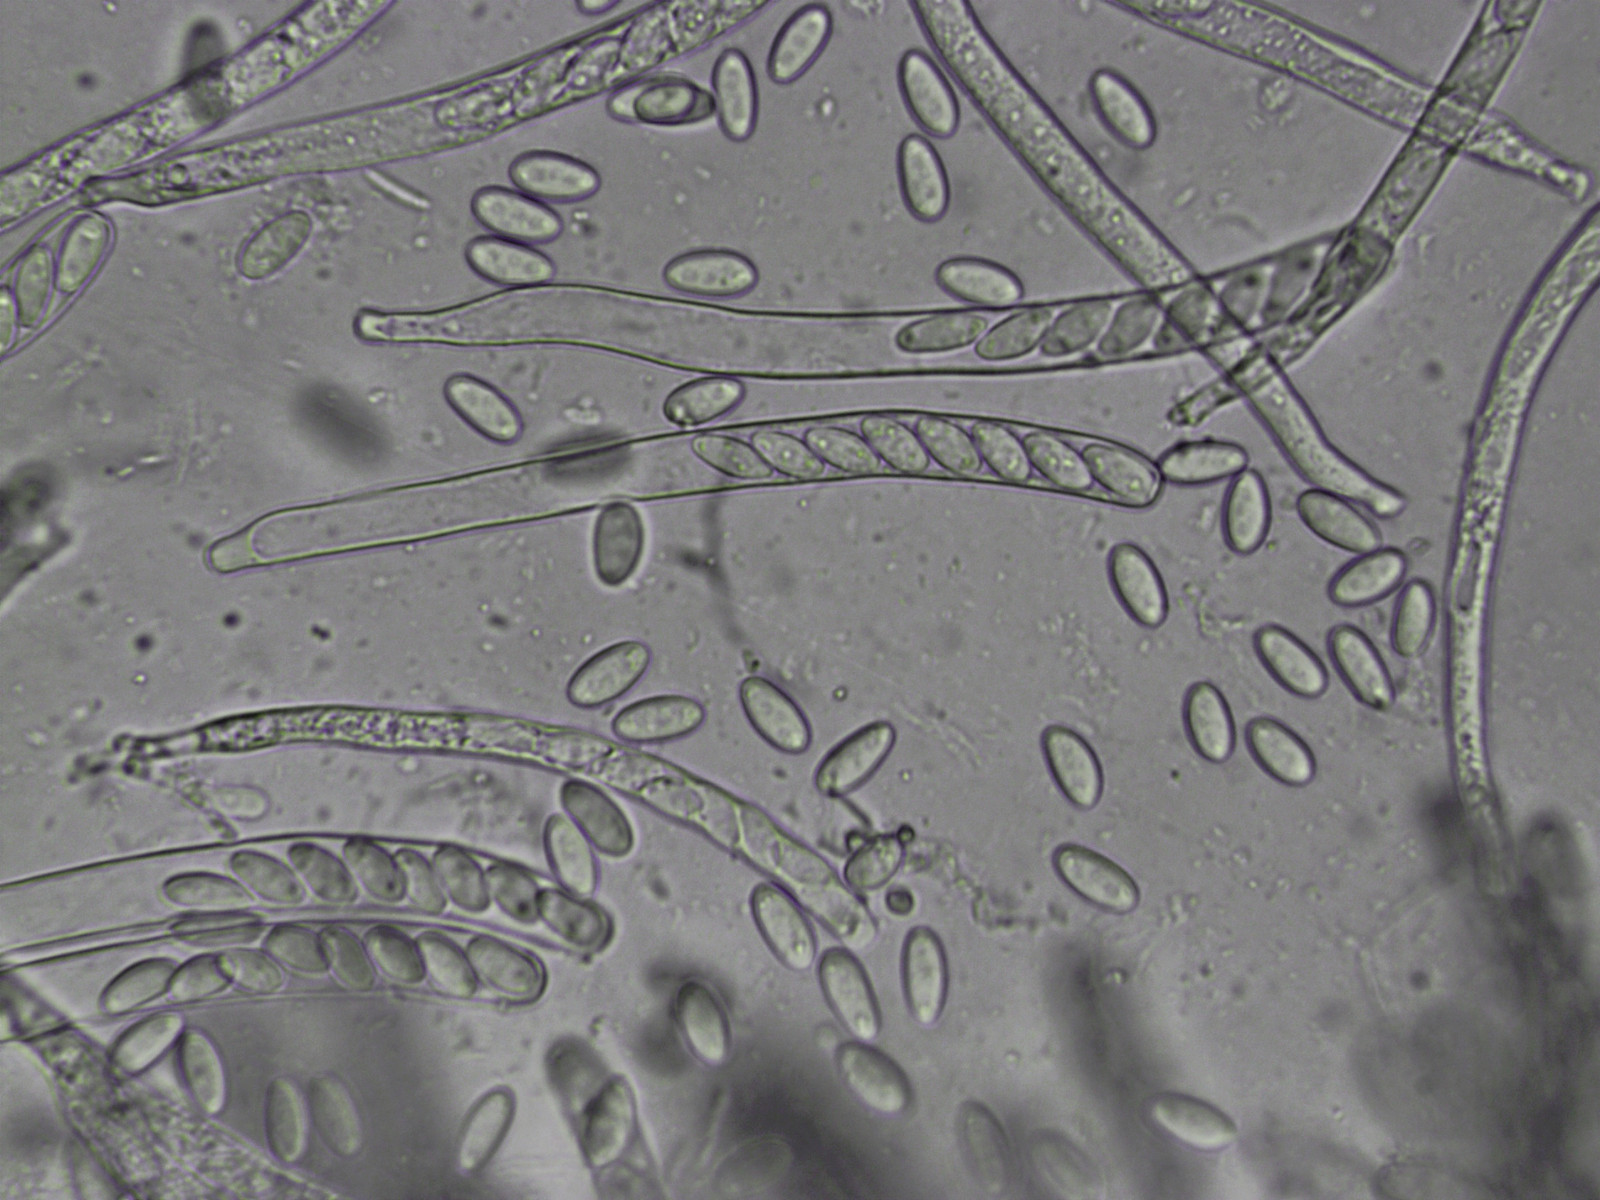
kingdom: Fungi
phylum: Ascomycota
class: Leotiomycetes
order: Helotiales
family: Sclerotiniaceae
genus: Dumontinia
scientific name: Dumontinia tuberosa
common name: anemone-knoldskive
